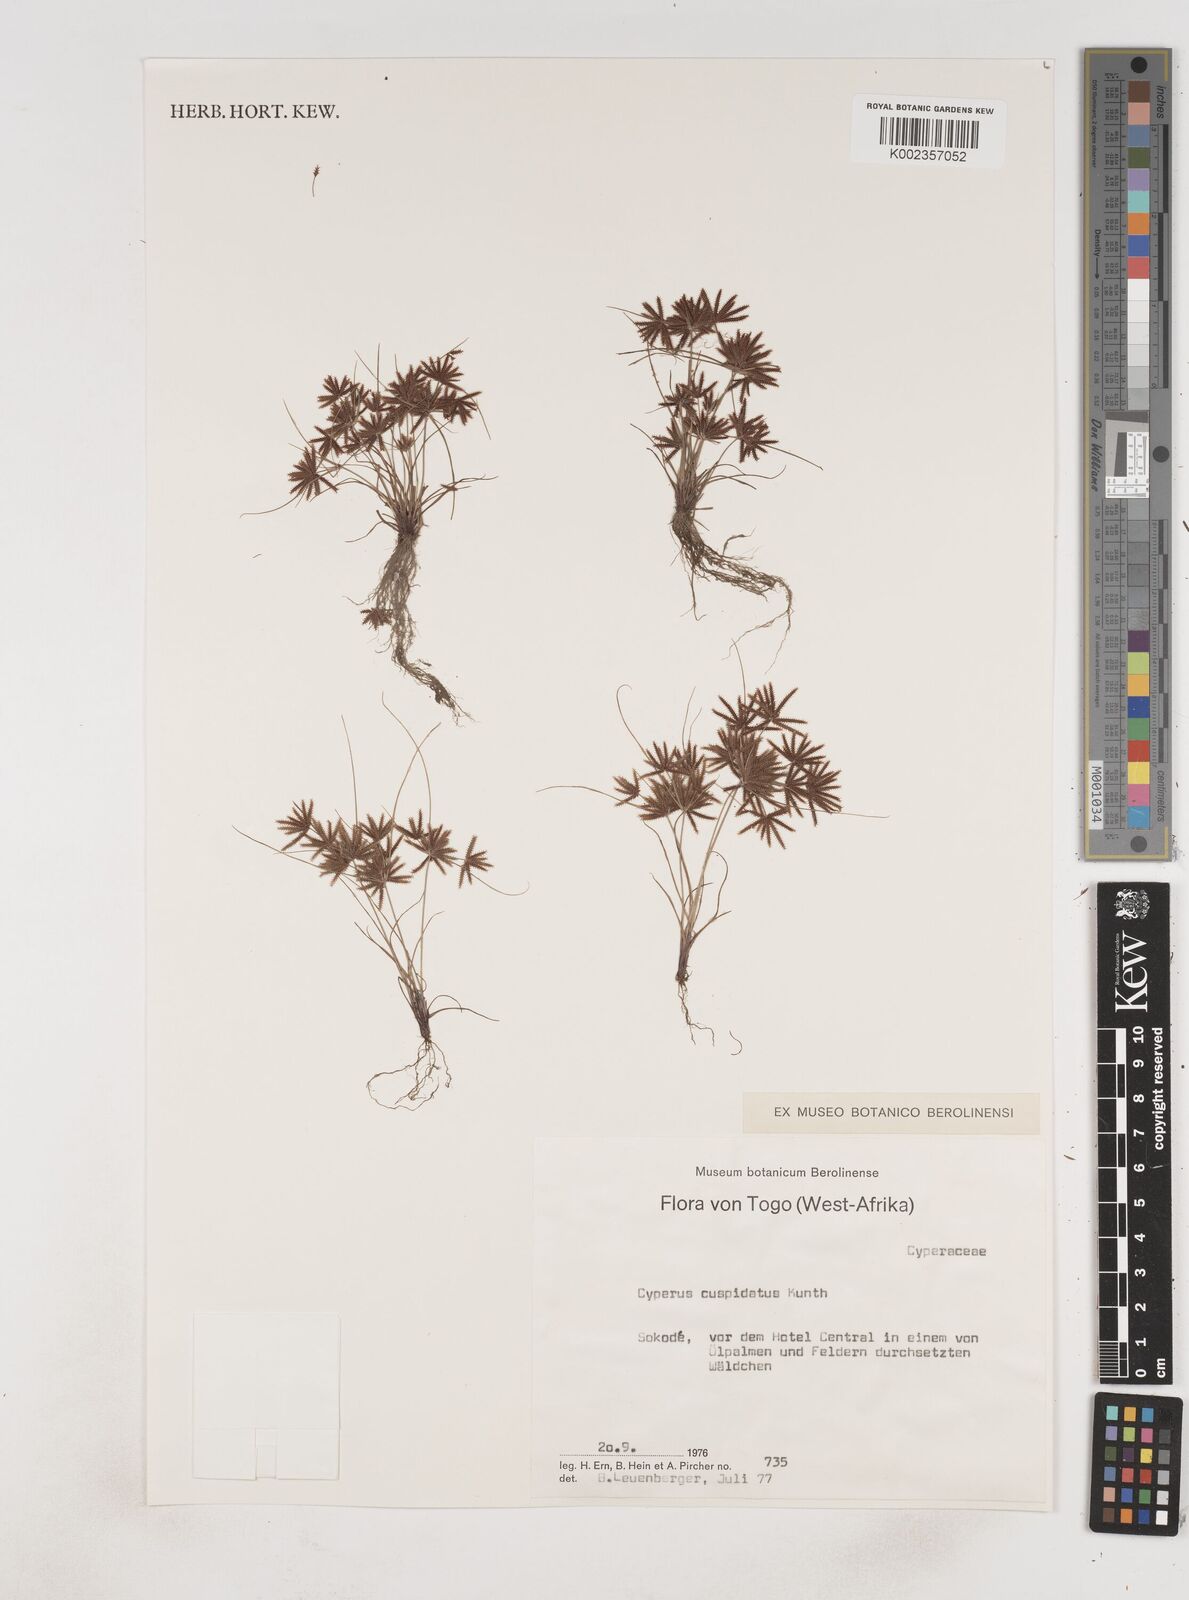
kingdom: Plantae
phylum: Tracheophyta
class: Liliopsida
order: Poales
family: Cyperaceae
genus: Cyperus
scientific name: Cyperus
